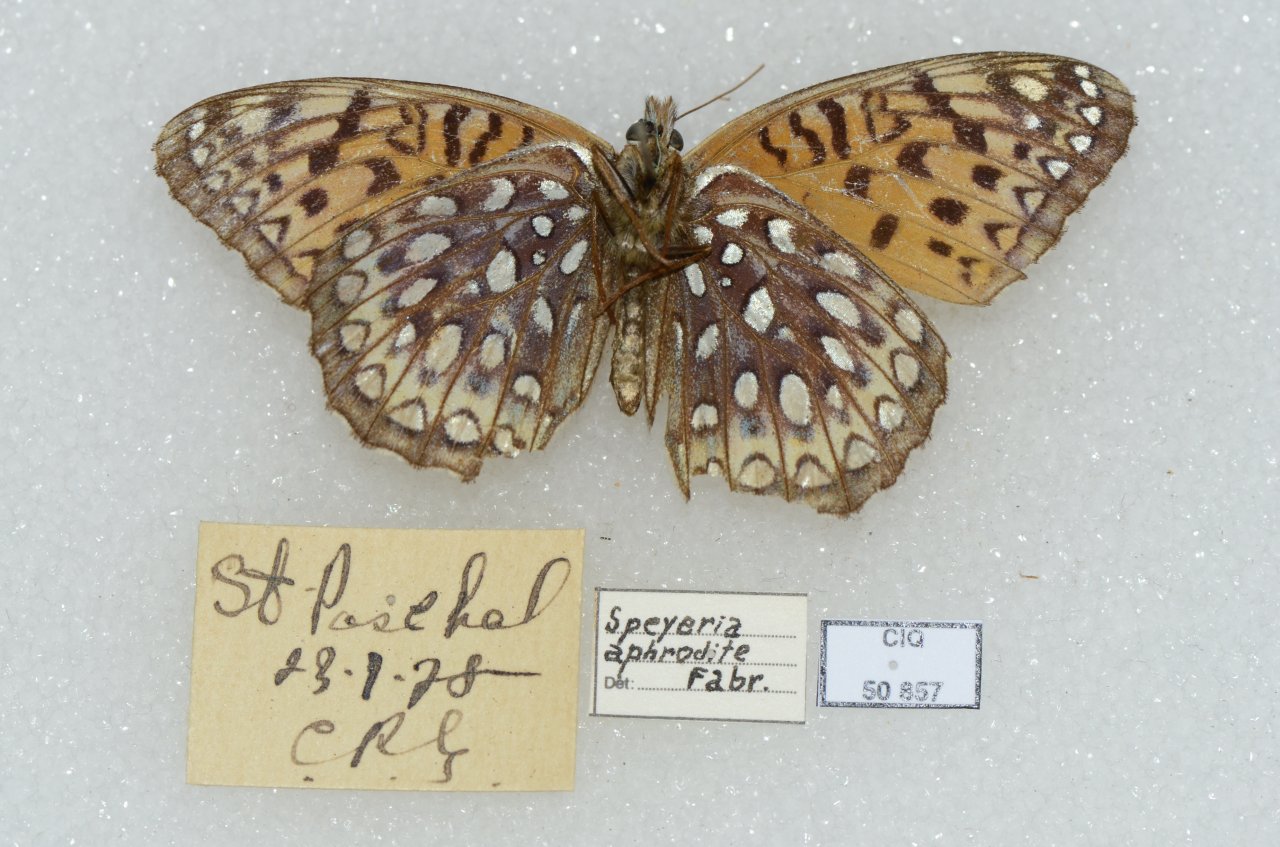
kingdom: Animalia
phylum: Arthropoda
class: Insecta
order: Lepidoptera
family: Nymphalidae
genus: Speyeria
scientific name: Speyeria aphrodite
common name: Aphrodite Fritillary
